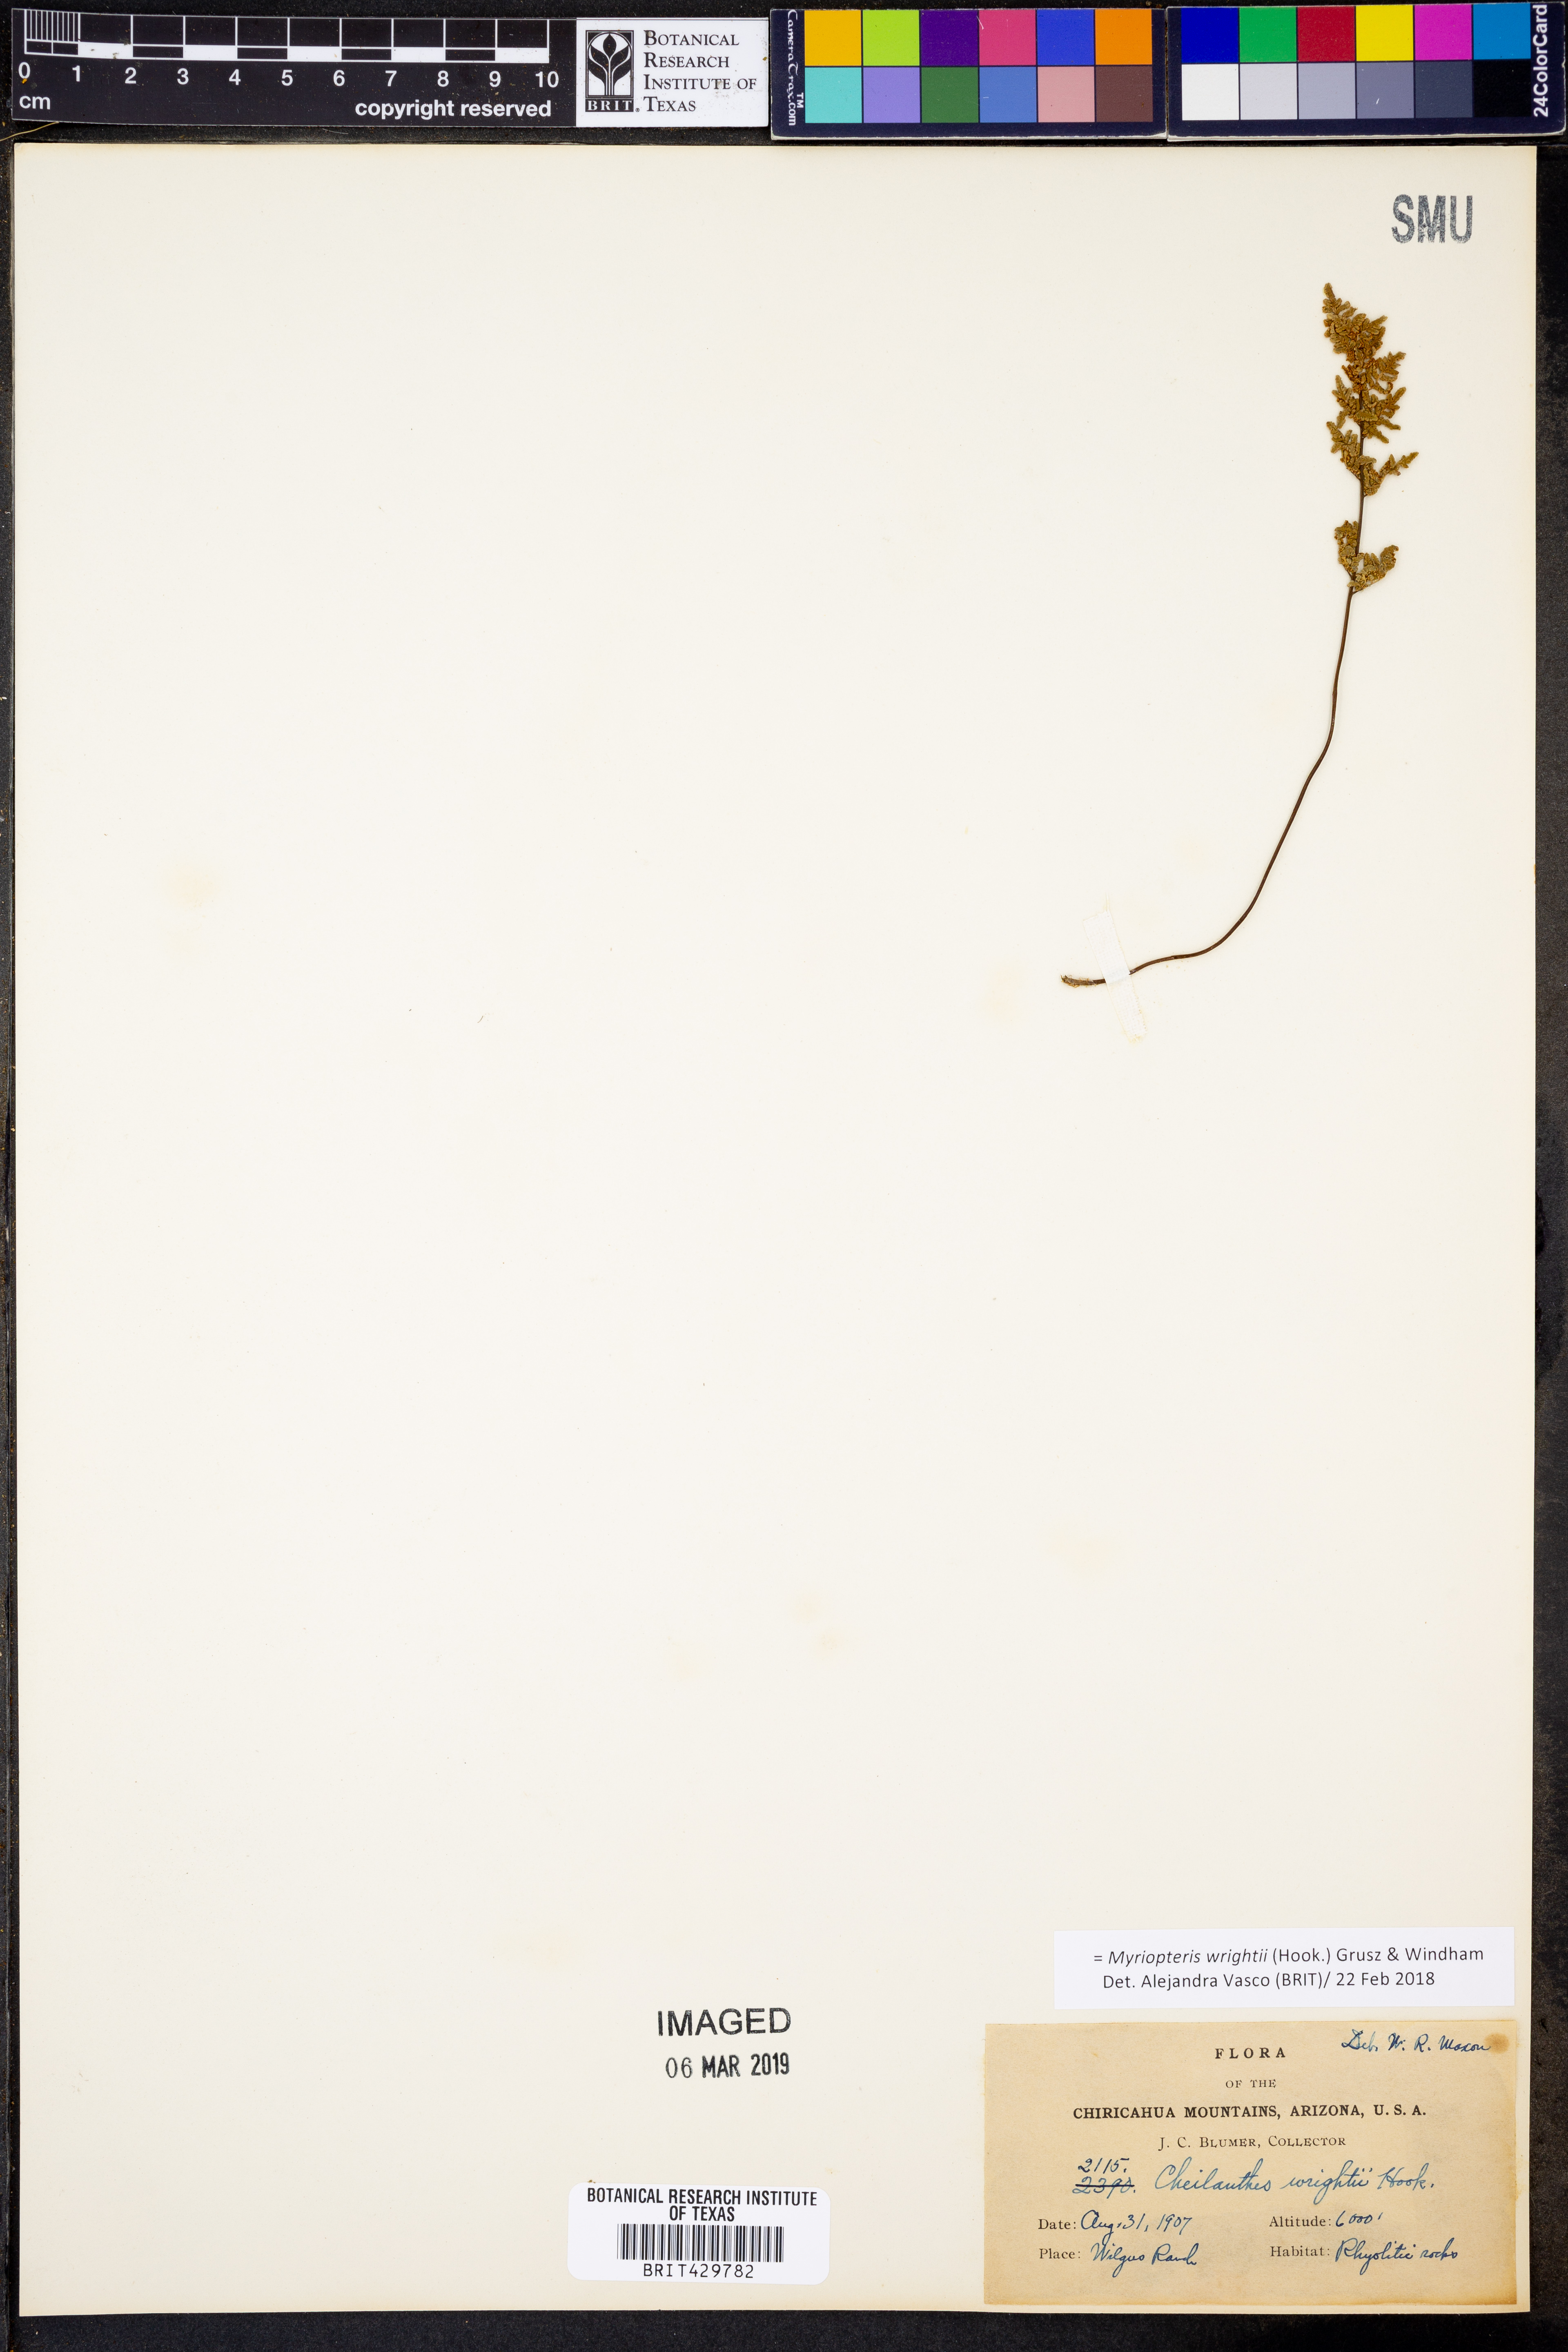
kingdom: Plantae
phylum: Tracheophyta
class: Polypodiopsida
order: Polypodiales
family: Pteridaceae
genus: Myriopteris
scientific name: Myriopteris wrightii
